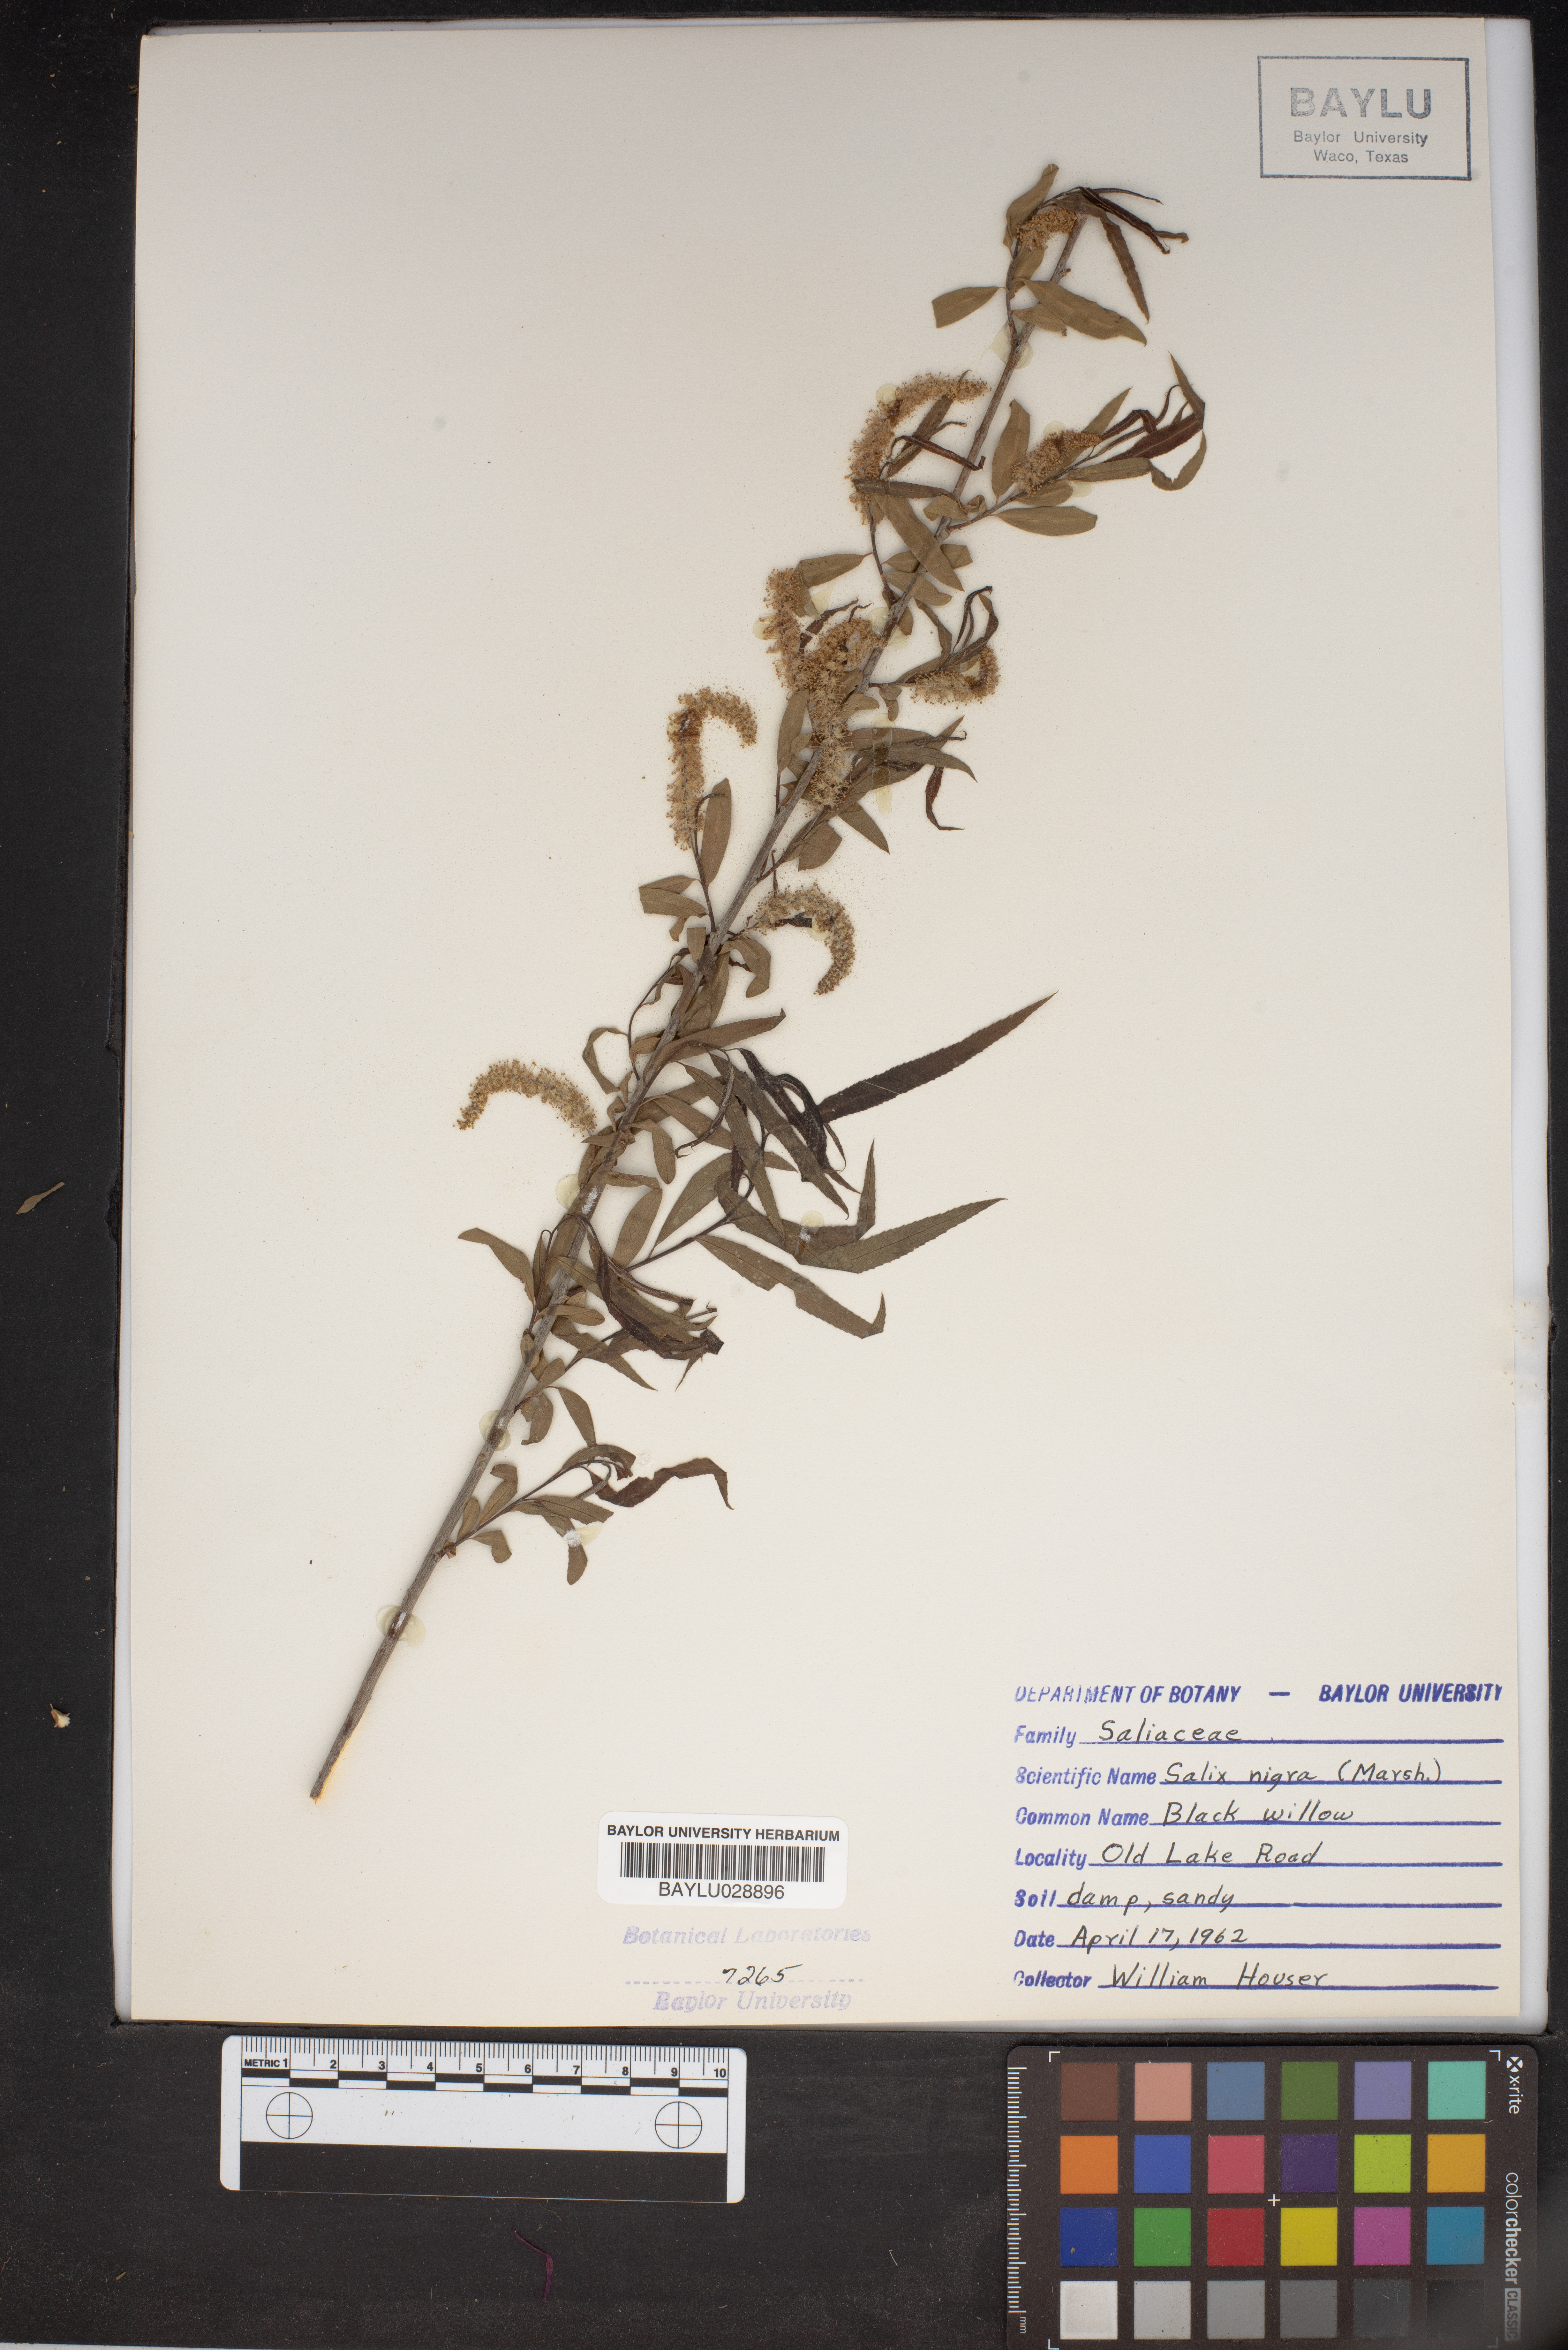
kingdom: Plantae
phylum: Tracheophyta
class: Magnoliopsida
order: Malpighiales
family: Salicaceae
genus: Salix
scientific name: Salix nigra
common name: Black willow
